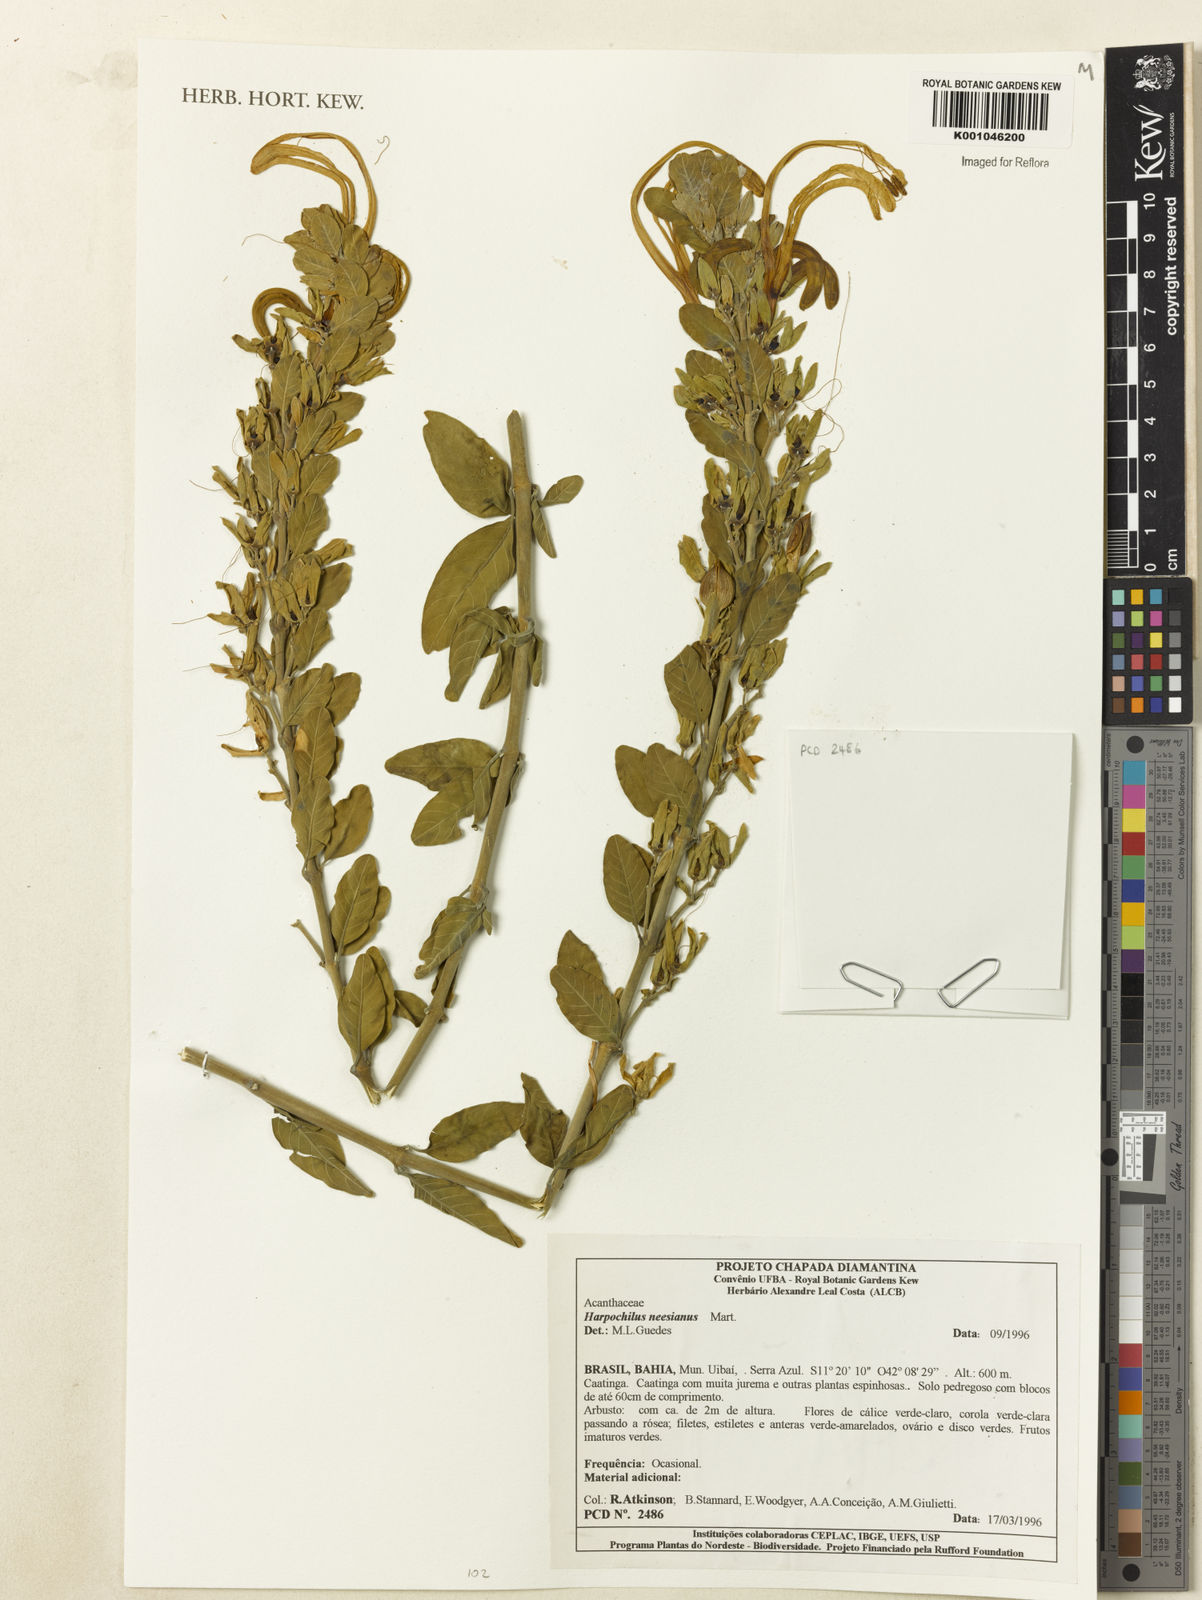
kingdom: Plantae
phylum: Tracheophyta
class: Magnoliopsida
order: Lamiales
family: Acanthaceae
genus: Harpochilus
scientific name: Harpochilus neesianus
